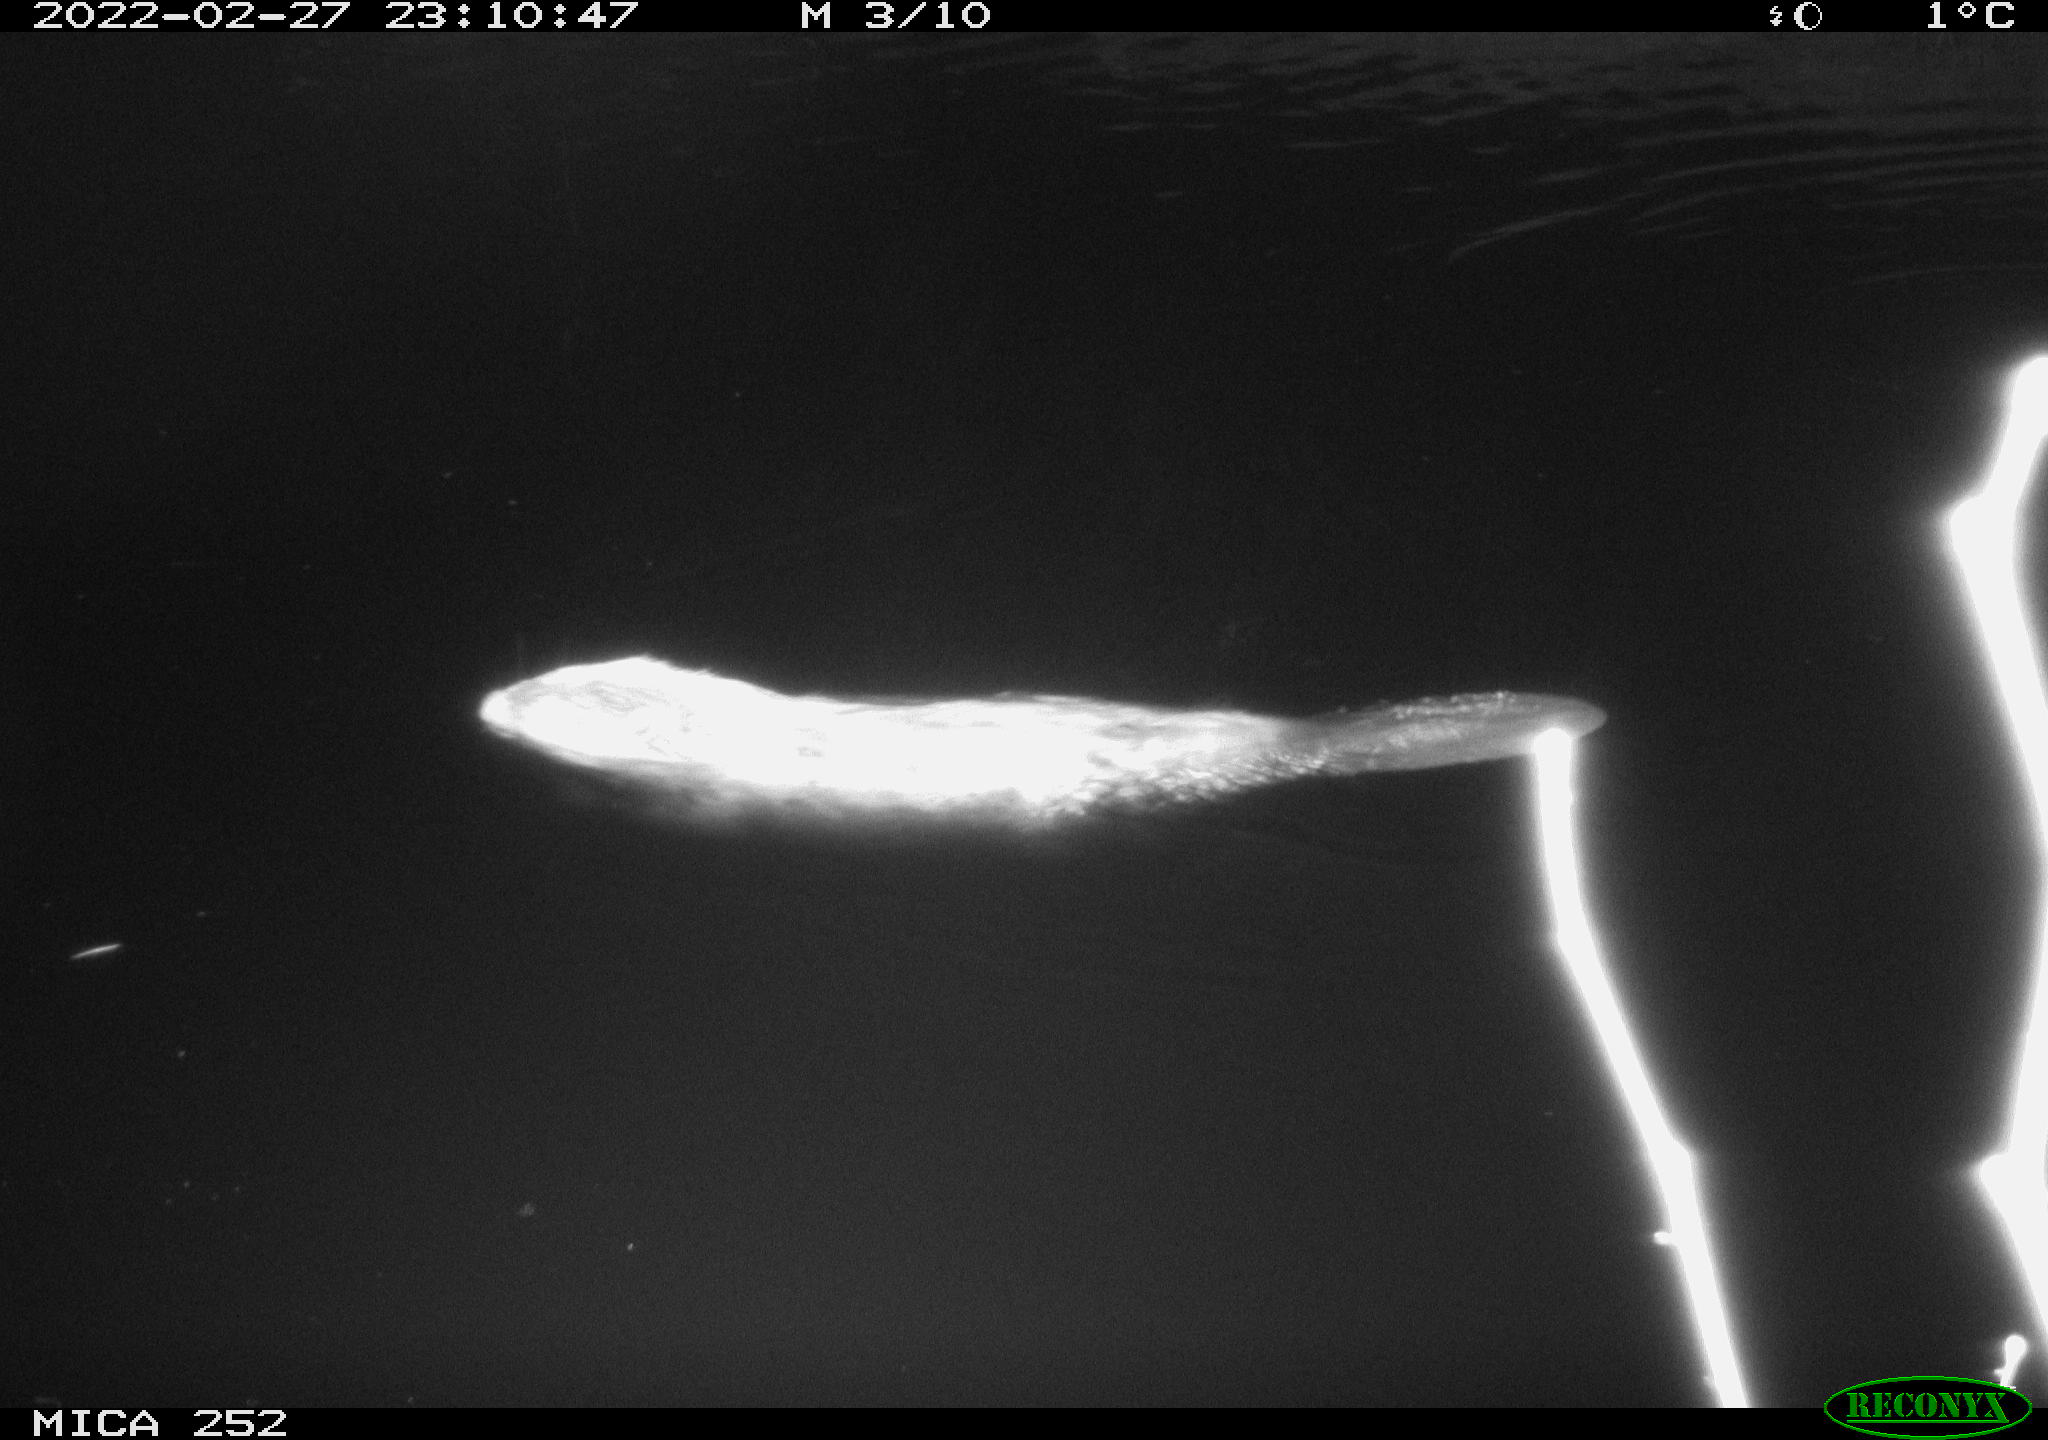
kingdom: Animalia
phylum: Chordata
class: Mammalia
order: Rodentia
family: Castoridae
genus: Castor
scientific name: Castor fiber
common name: Eurasian beaver
